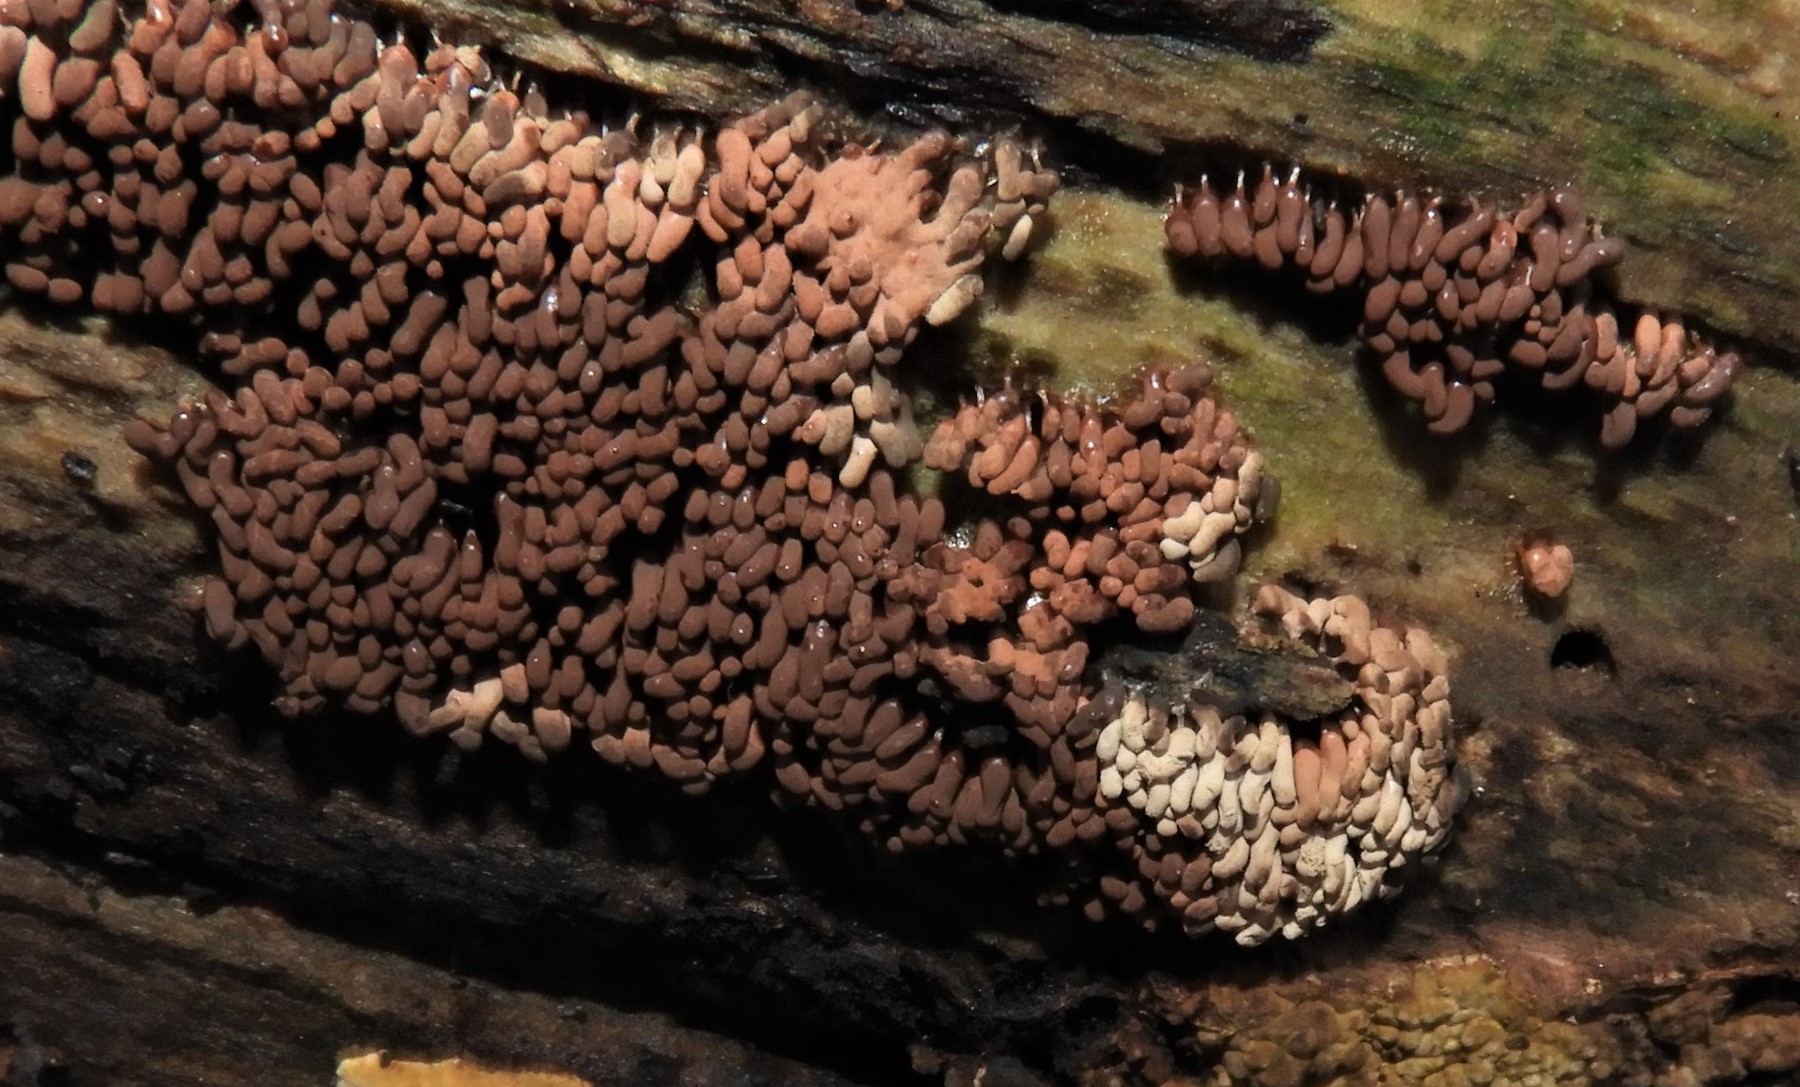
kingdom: Protozoa
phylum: Amoebozoa
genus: Arcyria
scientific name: Arcyria
